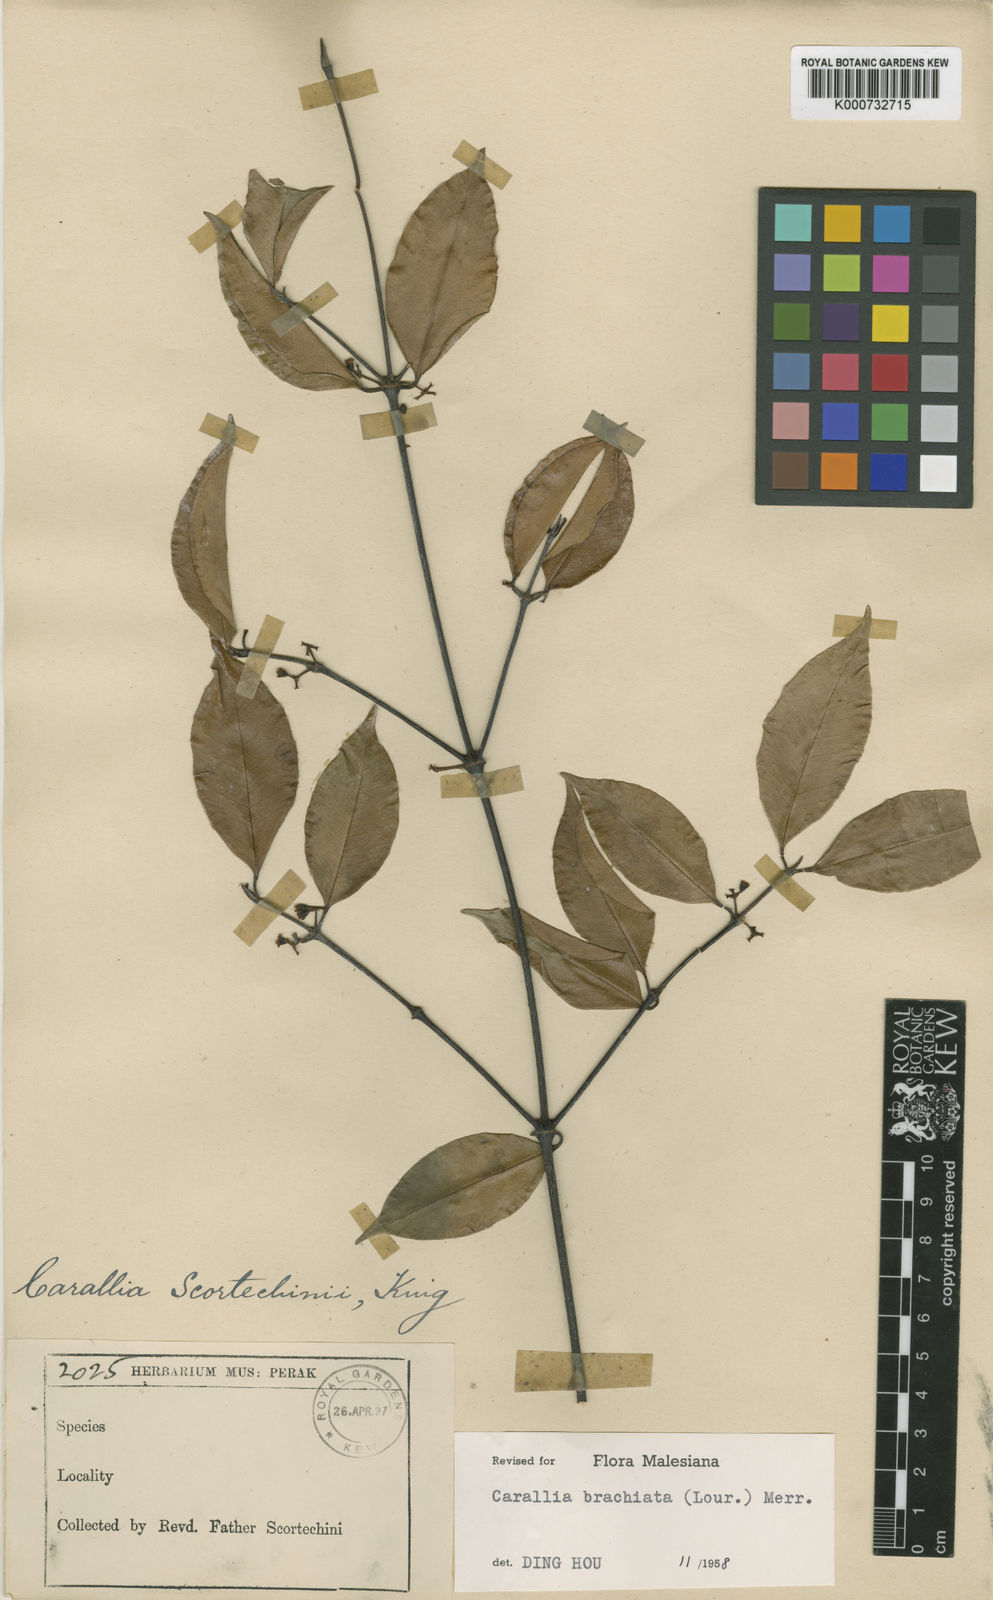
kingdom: Plantae
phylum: Tracheophyta
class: Magnoliopsida
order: Malpighiales
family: Rhizophoraceae
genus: Carallia
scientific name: Carallia brachiata
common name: Carallawood
